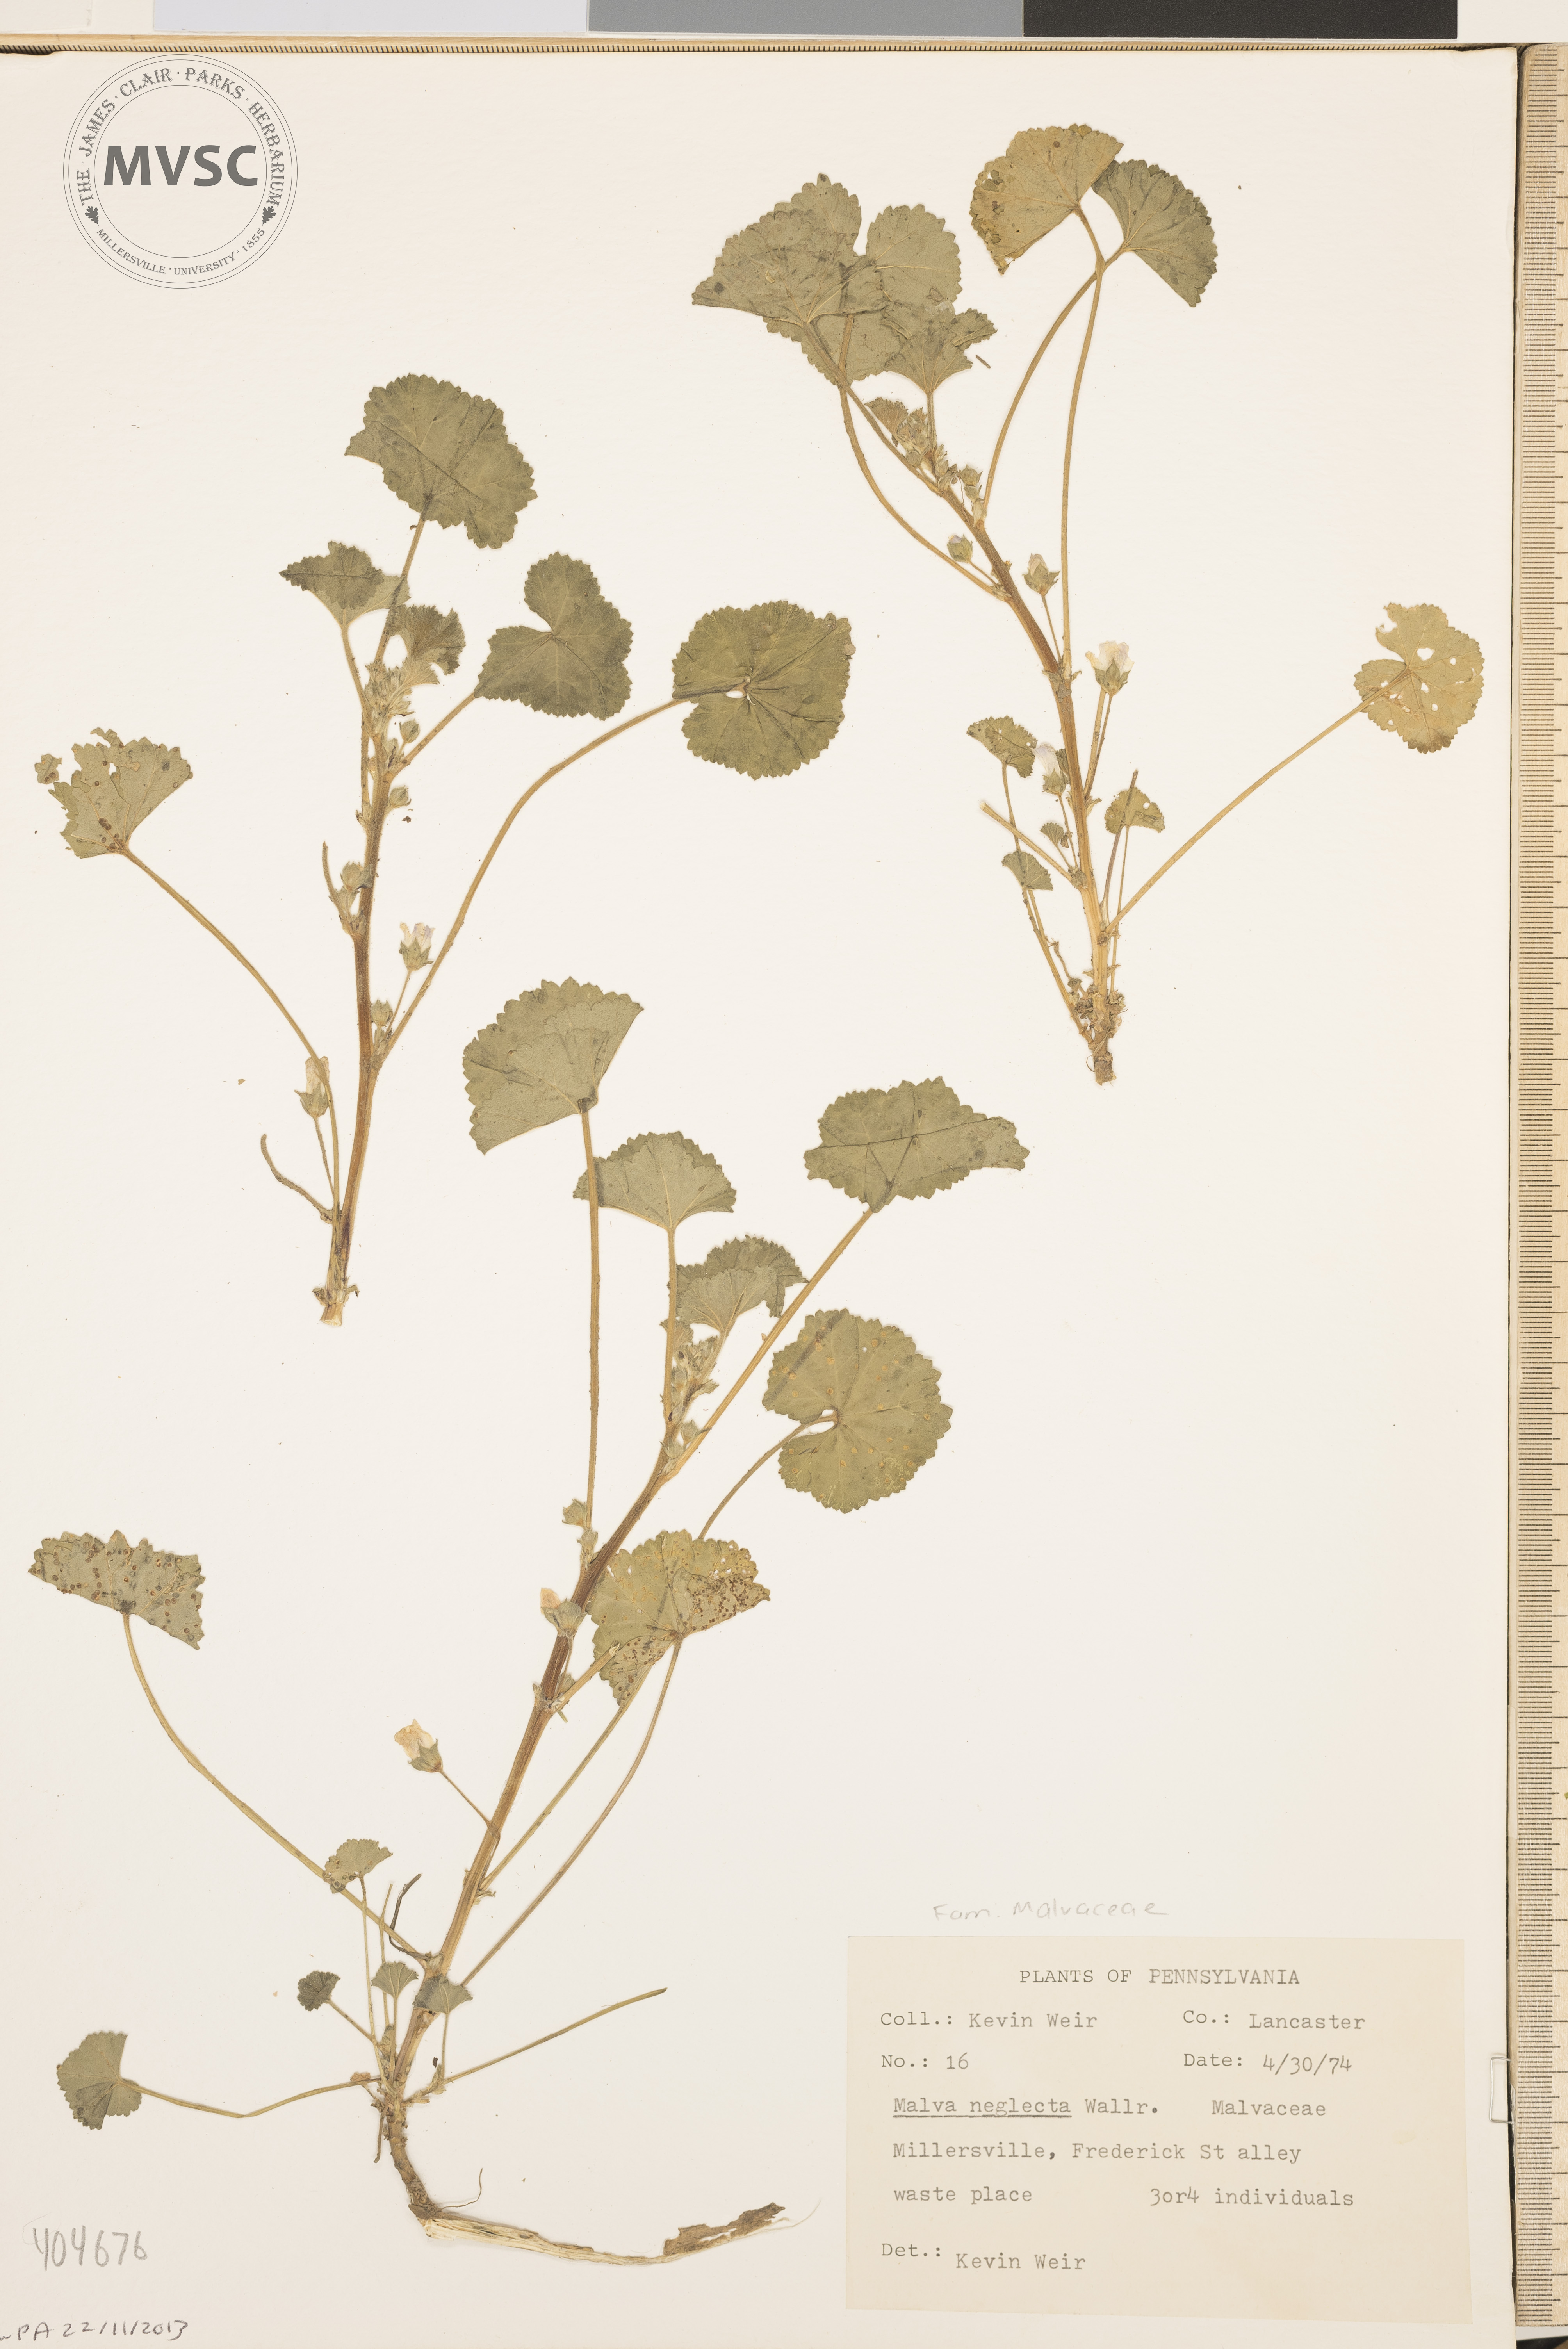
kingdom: Plantae
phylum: Tracheophyta
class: Magnoliopsida
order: Malvales
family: Malvaceae
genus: Malva
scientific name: Malva neglecta
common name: Mallow
